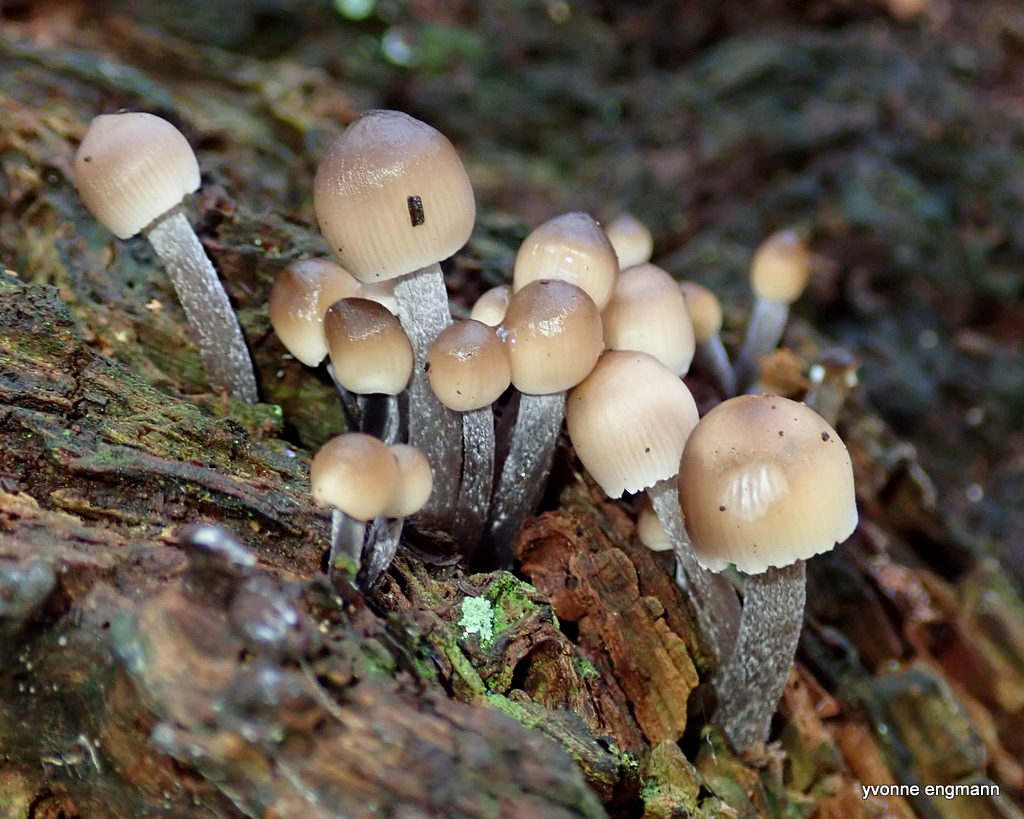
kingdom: Fungi
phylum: Basidiomycota
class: Agaricomycetes
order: Agaricales
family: Mycenaceae
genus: Mycena
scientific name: Mycena inclinata
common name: nikkende huesvamp
